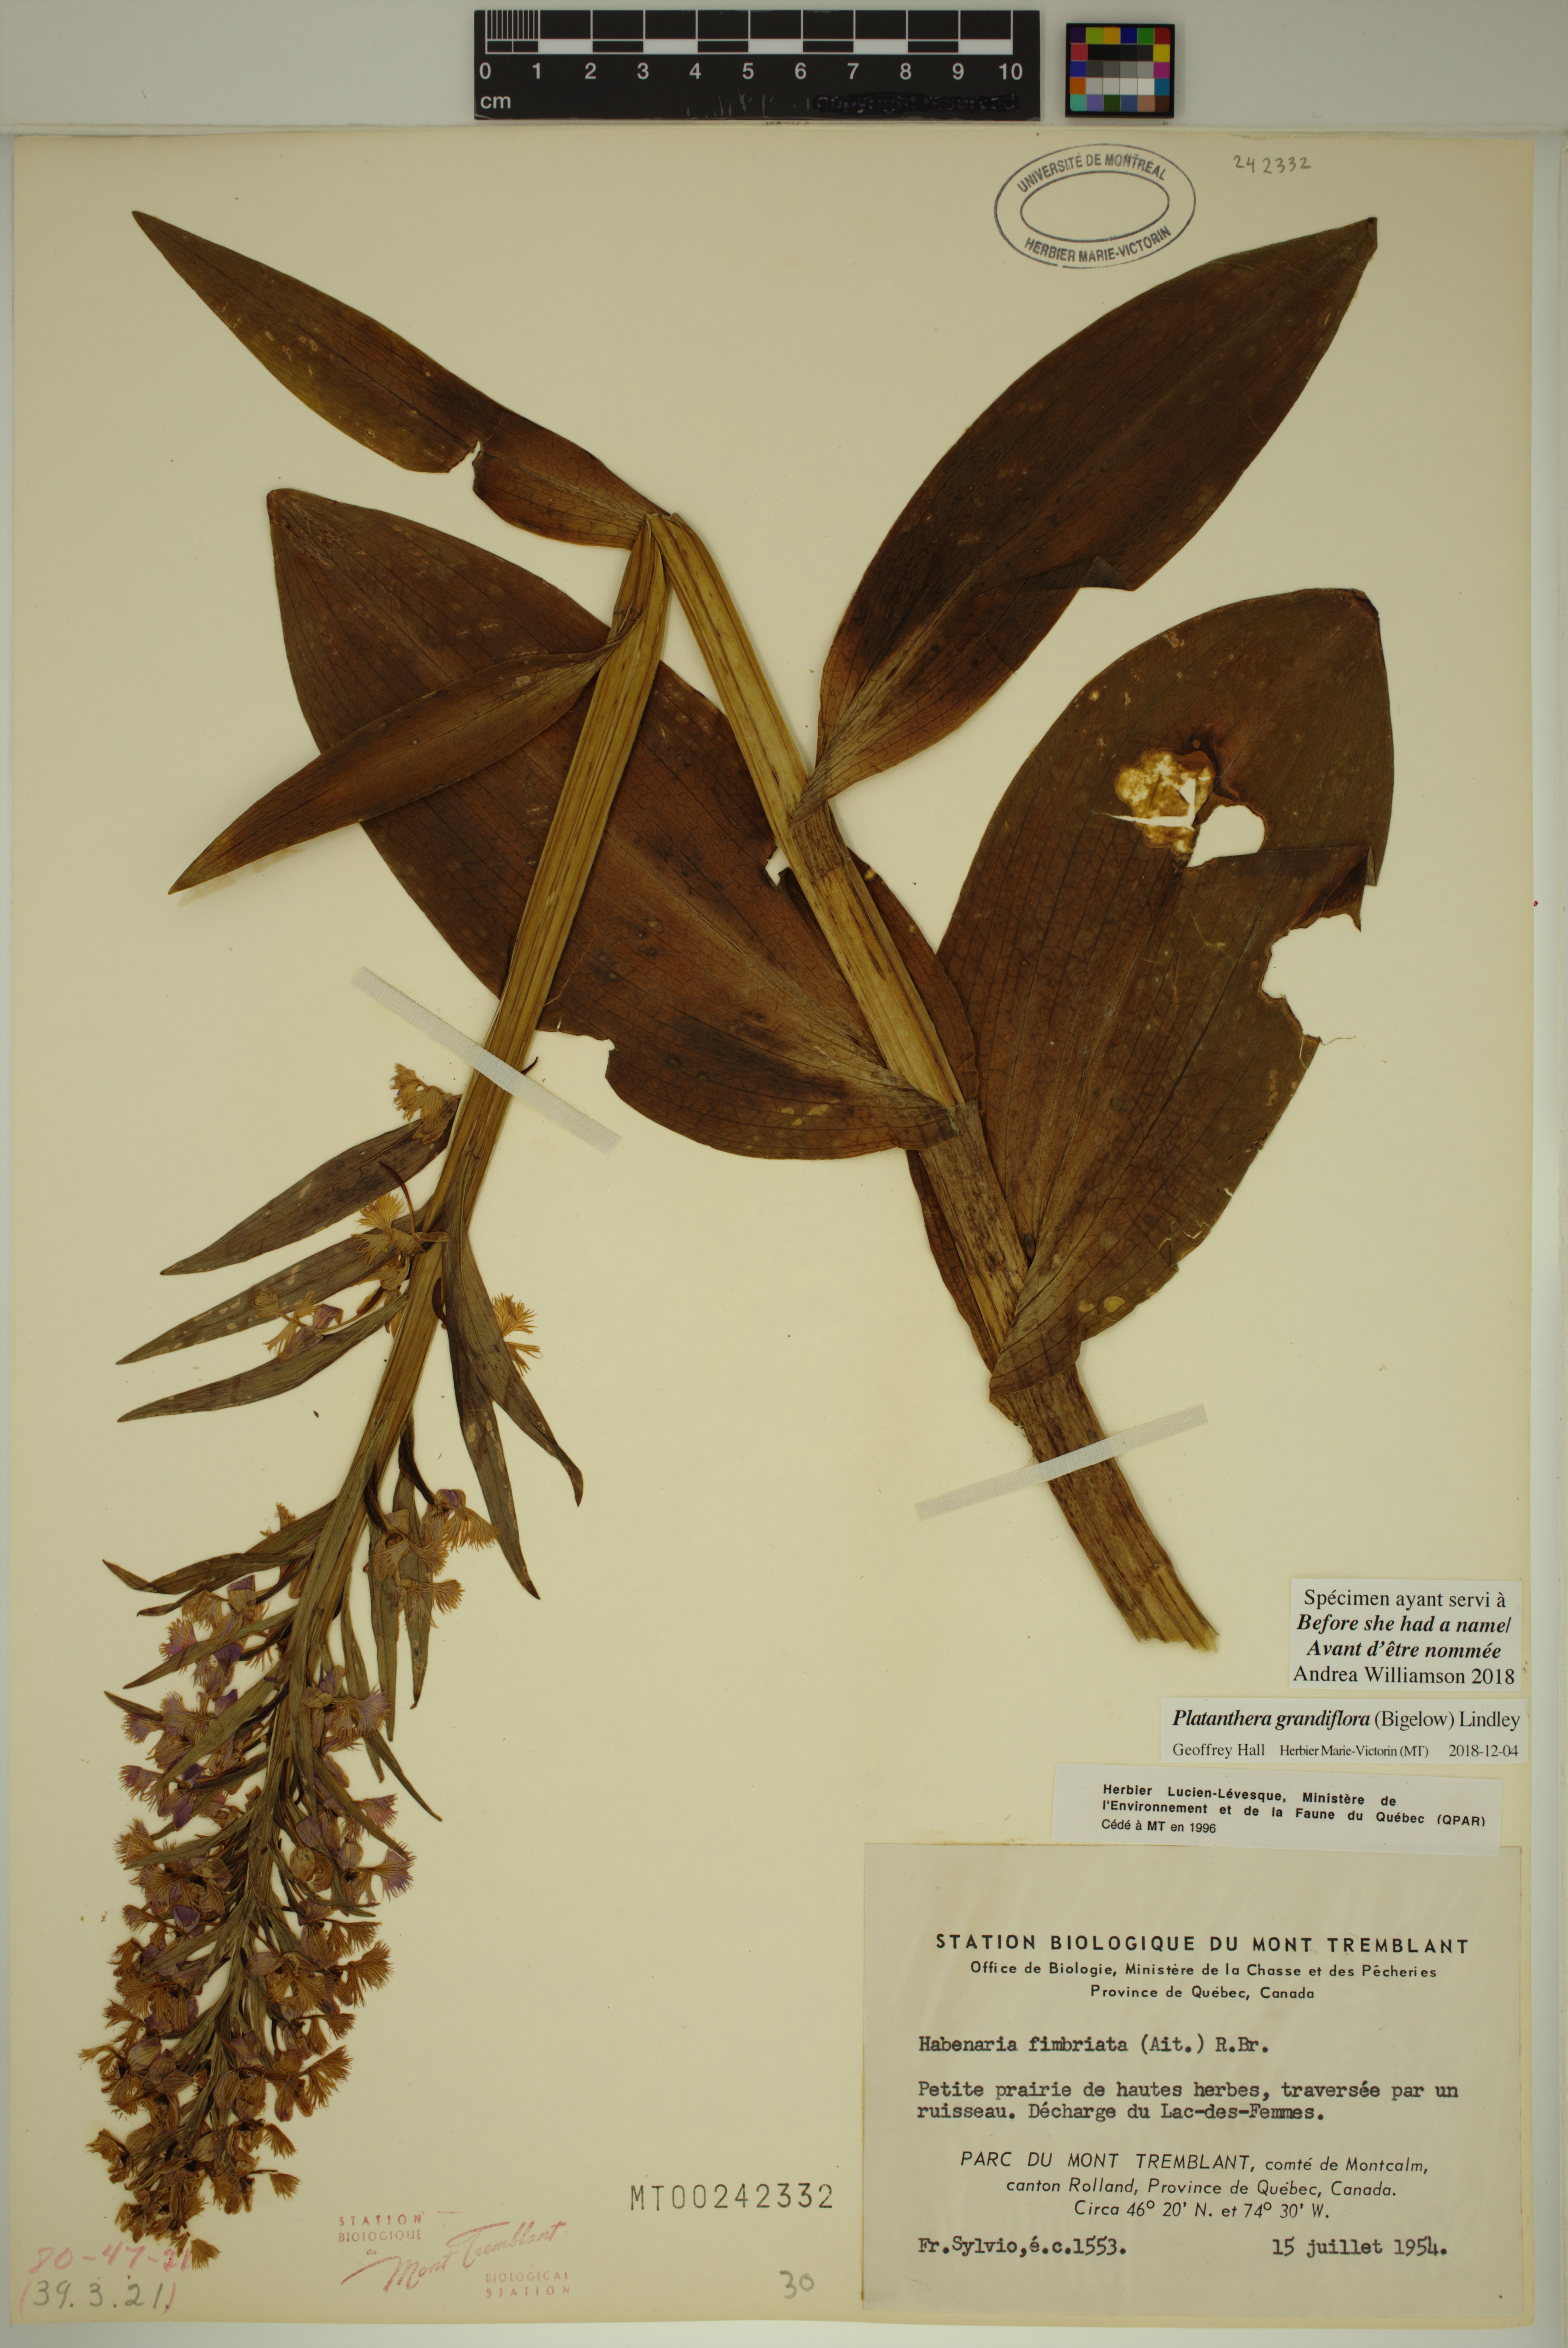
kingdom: Plantae
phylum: Tracheophyta
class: Liliopsida
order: Asparagales
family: Orchidaceae
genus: Platanthera
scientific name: Platanthera grandiflora
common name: Greater purple fringed orchid
